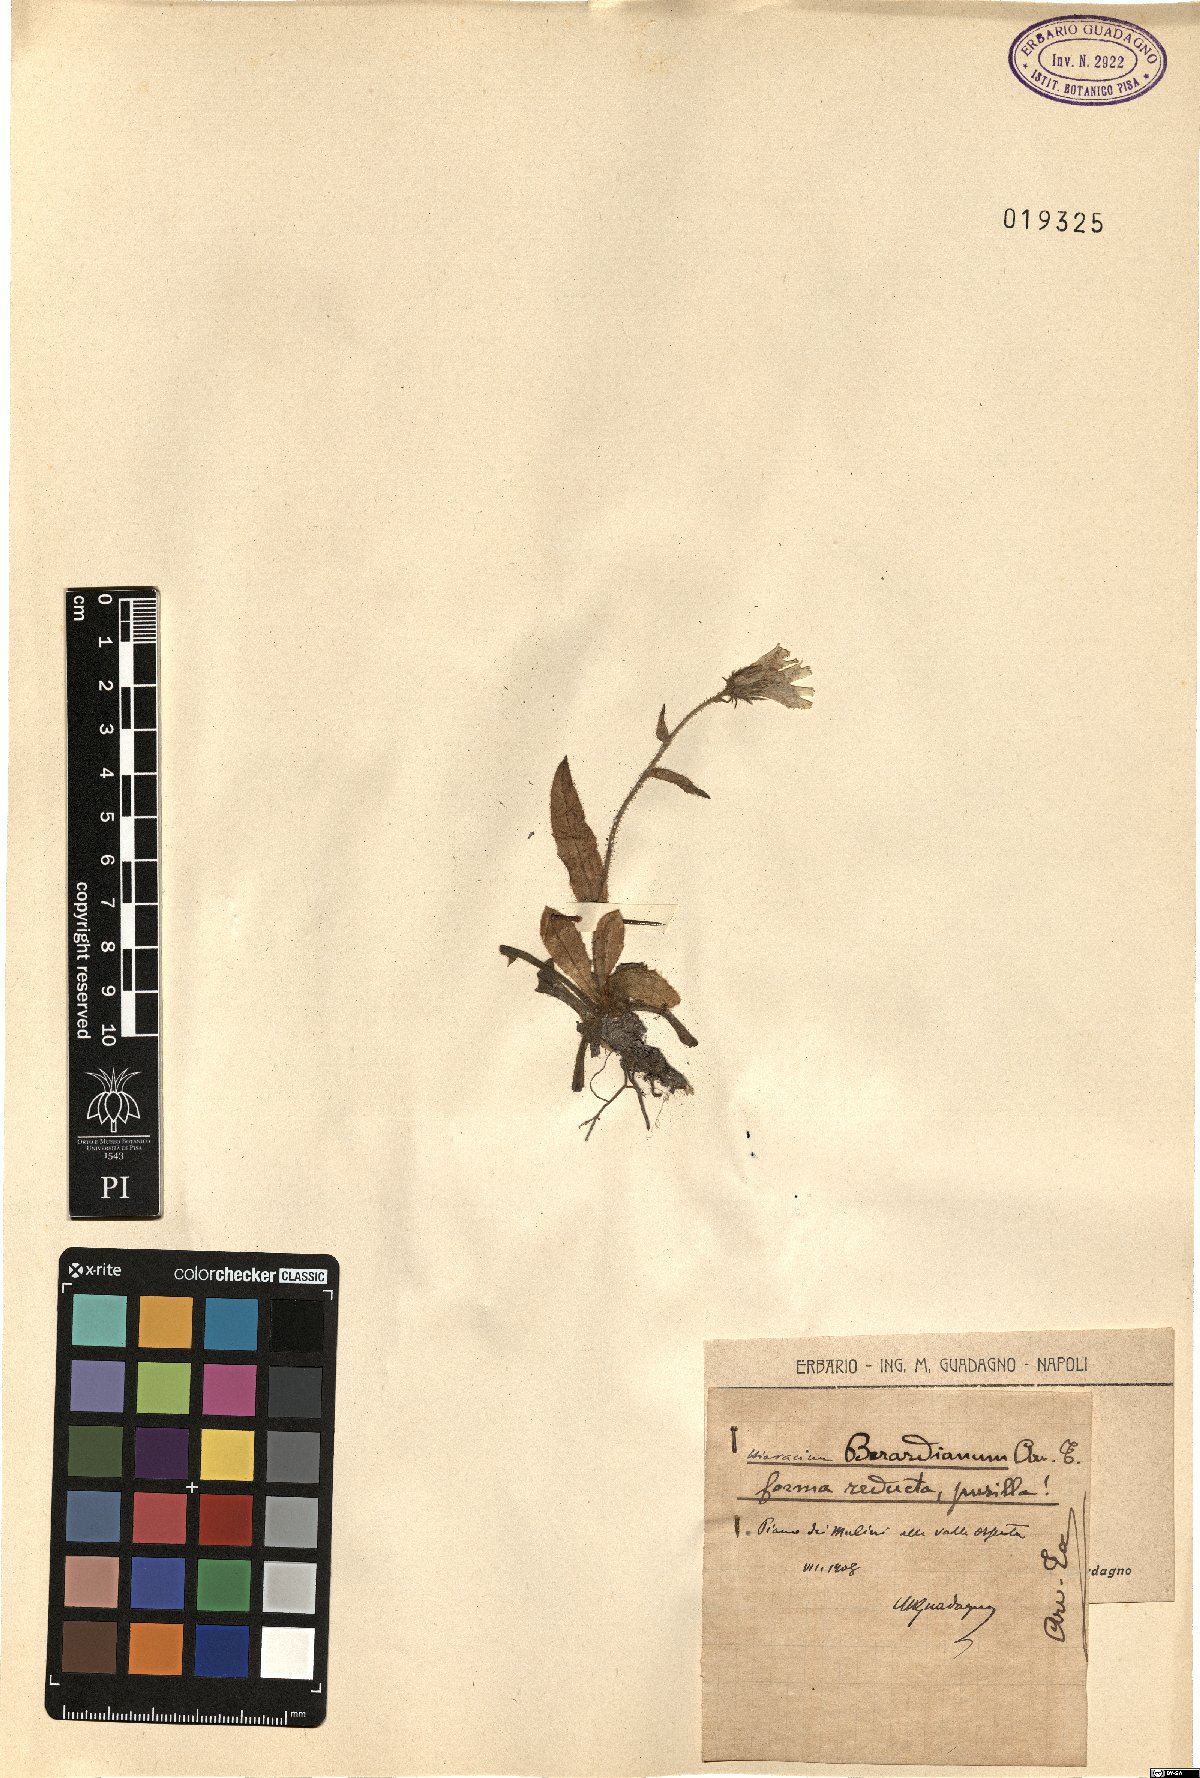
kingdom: Plantae
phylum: Tracheophyta
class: Magnoliopsida
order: Asterales
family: Asteraceae
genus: Hieracium
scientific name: Hieracium amplexicaule
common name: Sticky hawkweed
